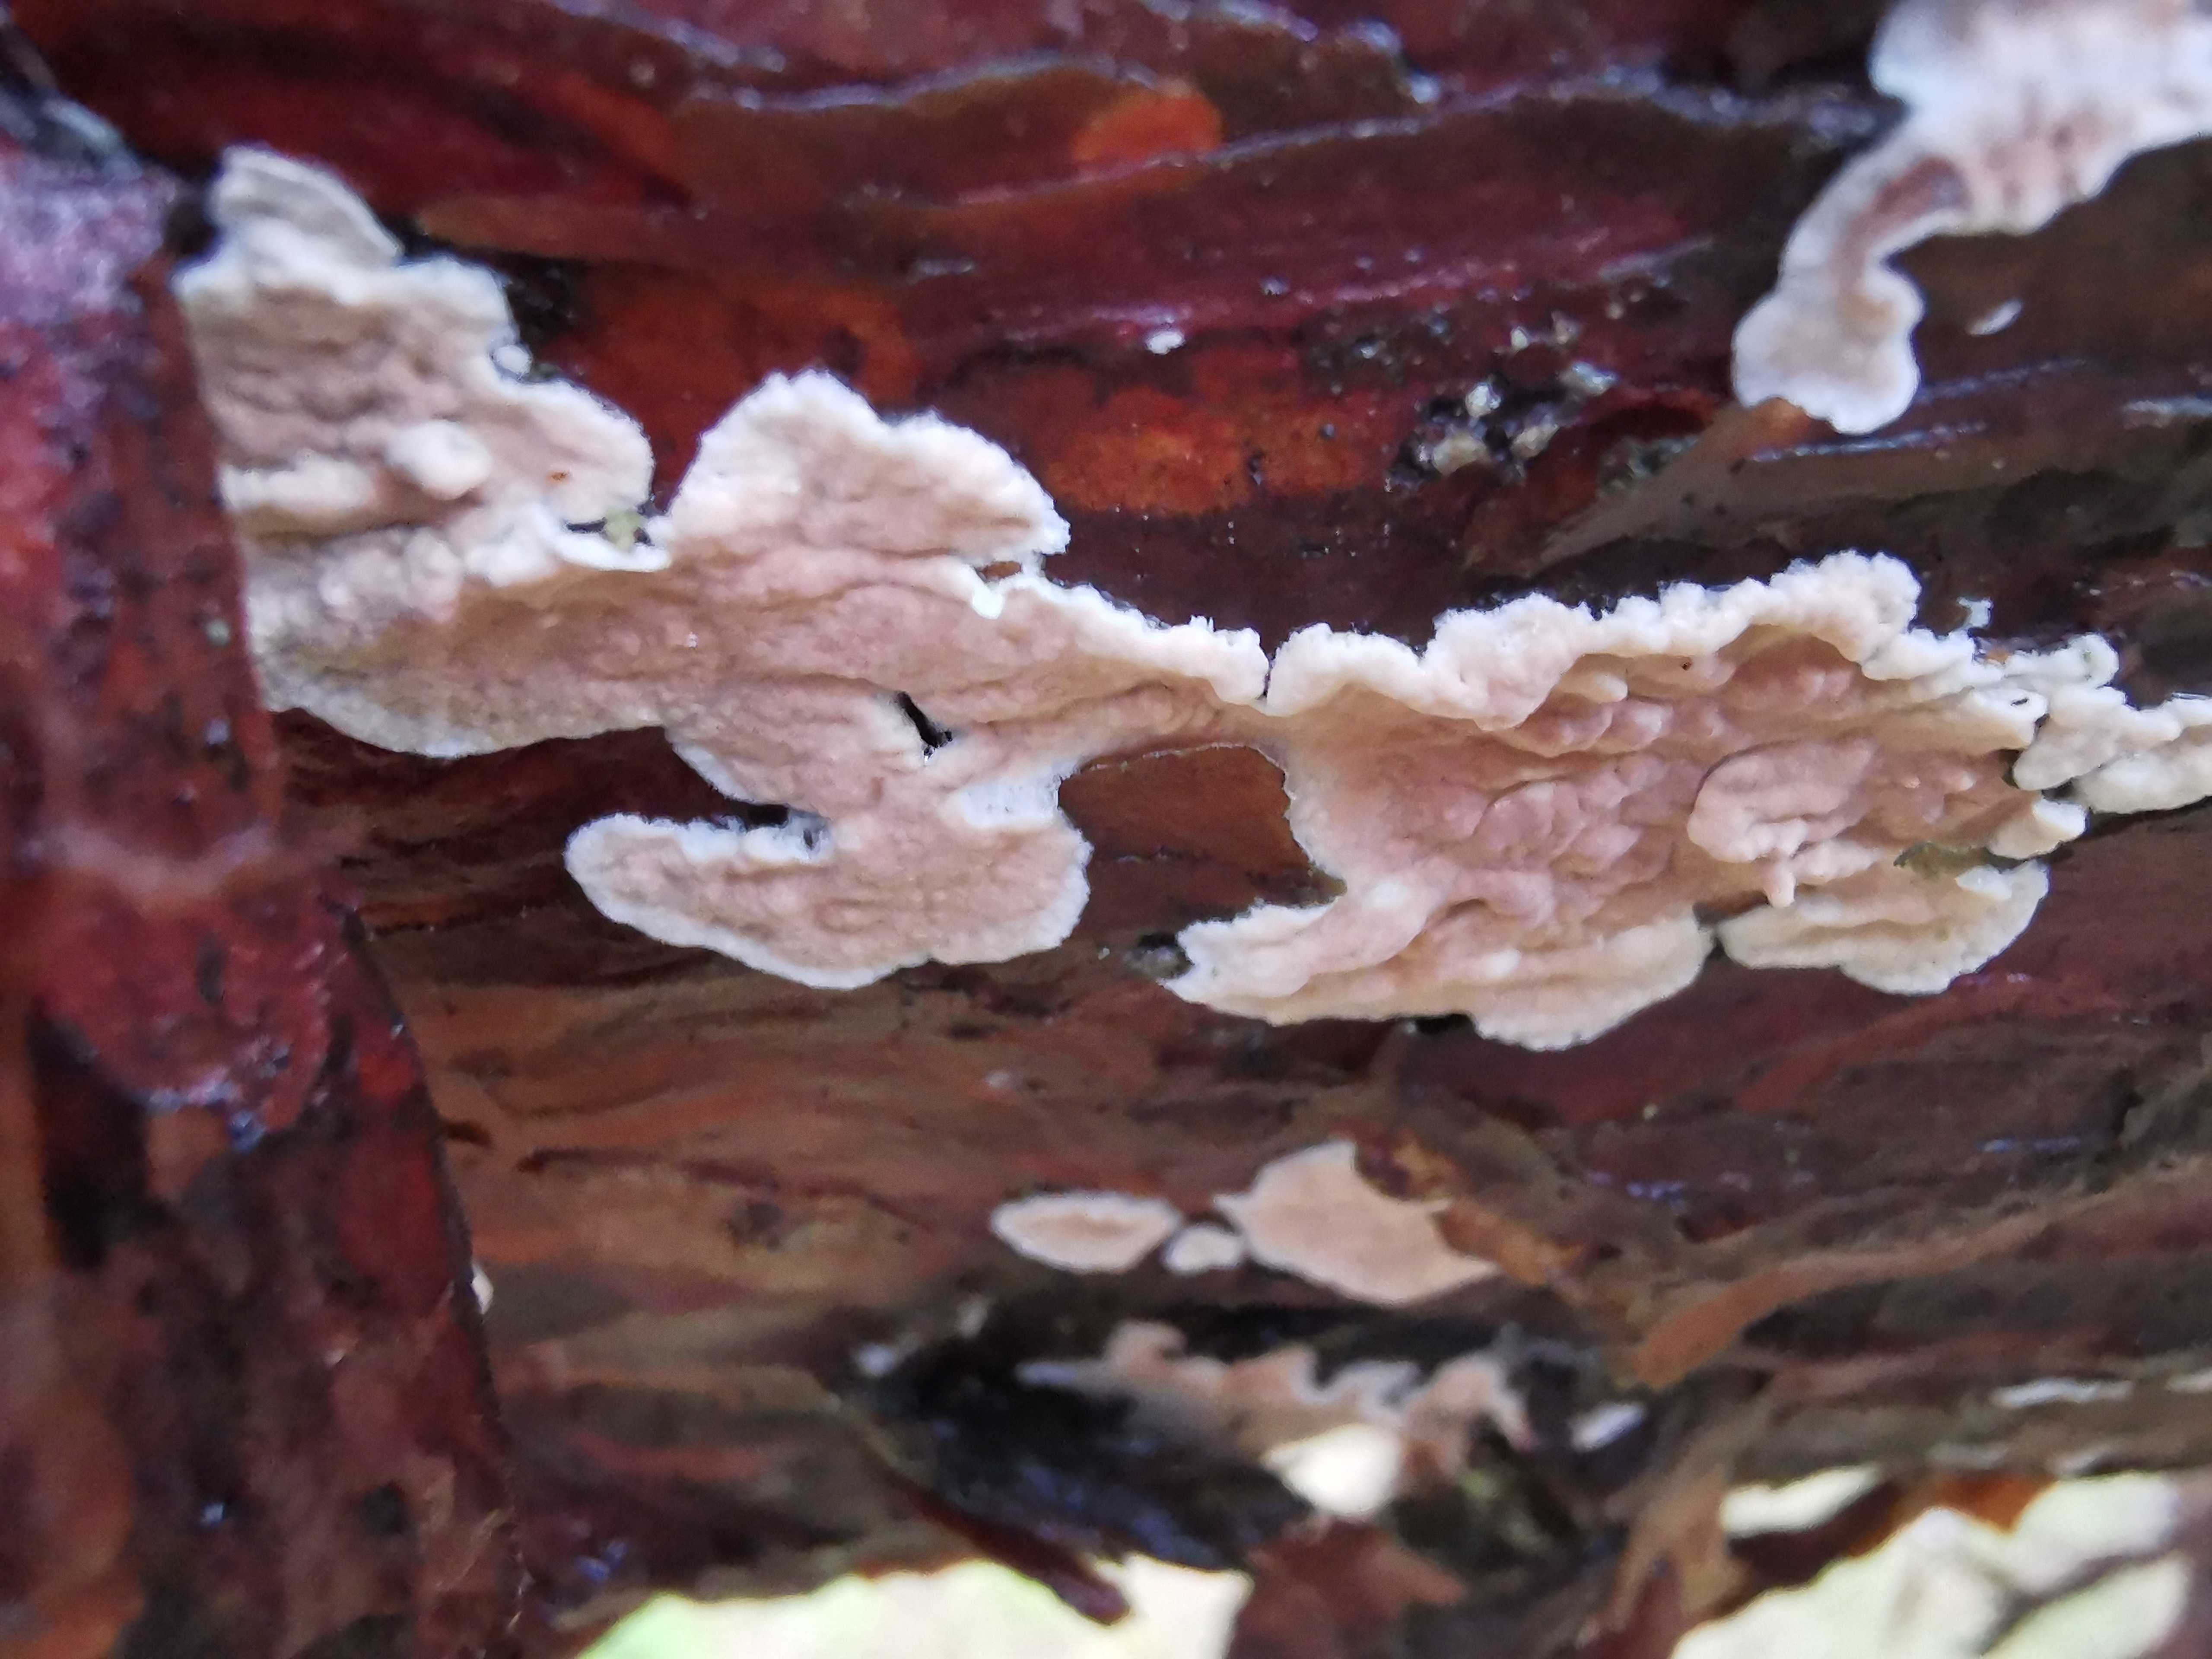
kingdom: Fungi
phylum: Basidiomycota
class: Agaricomycetes
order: Corticiales
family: Corticiaceae
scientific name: Corticiaceae
